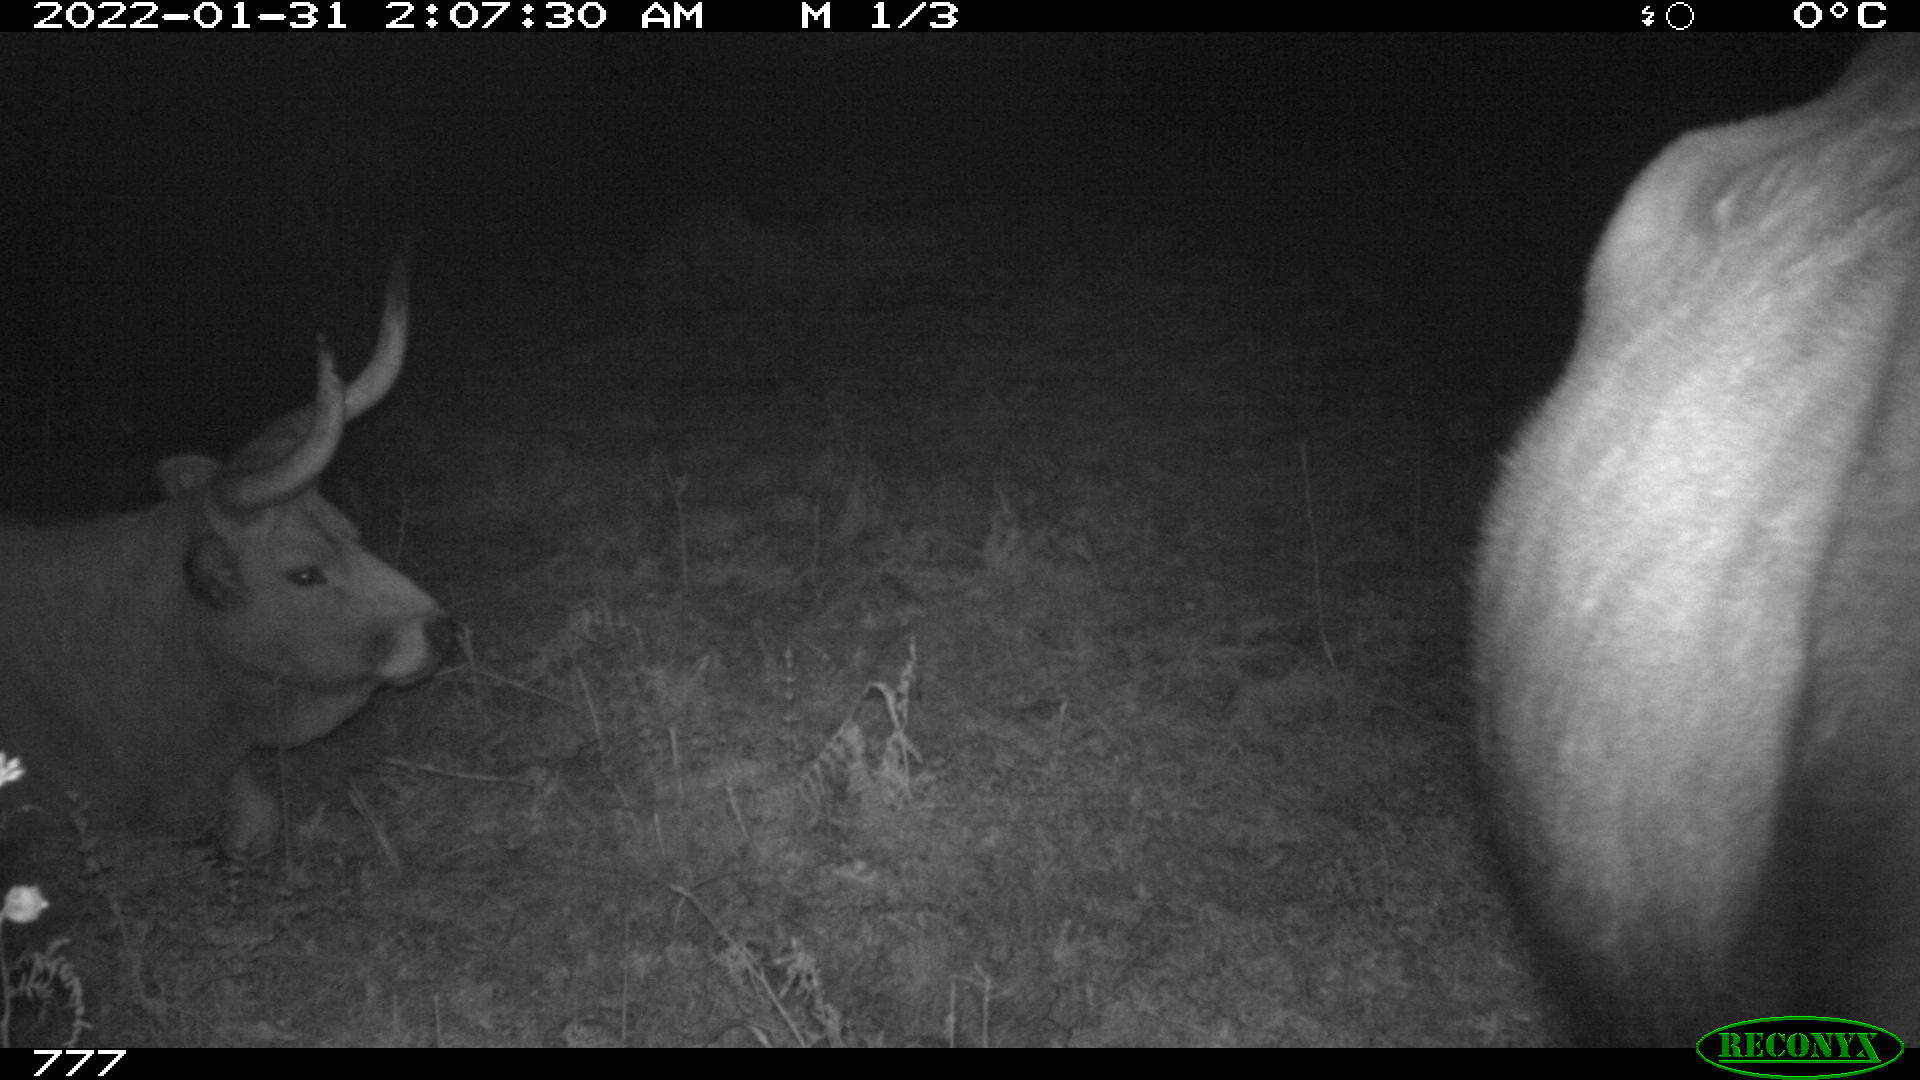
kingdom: Animalia
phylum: Chordata
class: Mammalia
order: Artiodactyla
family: Bovidae
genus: Bos
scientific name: Bos taurus
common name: Domesticated cattle
